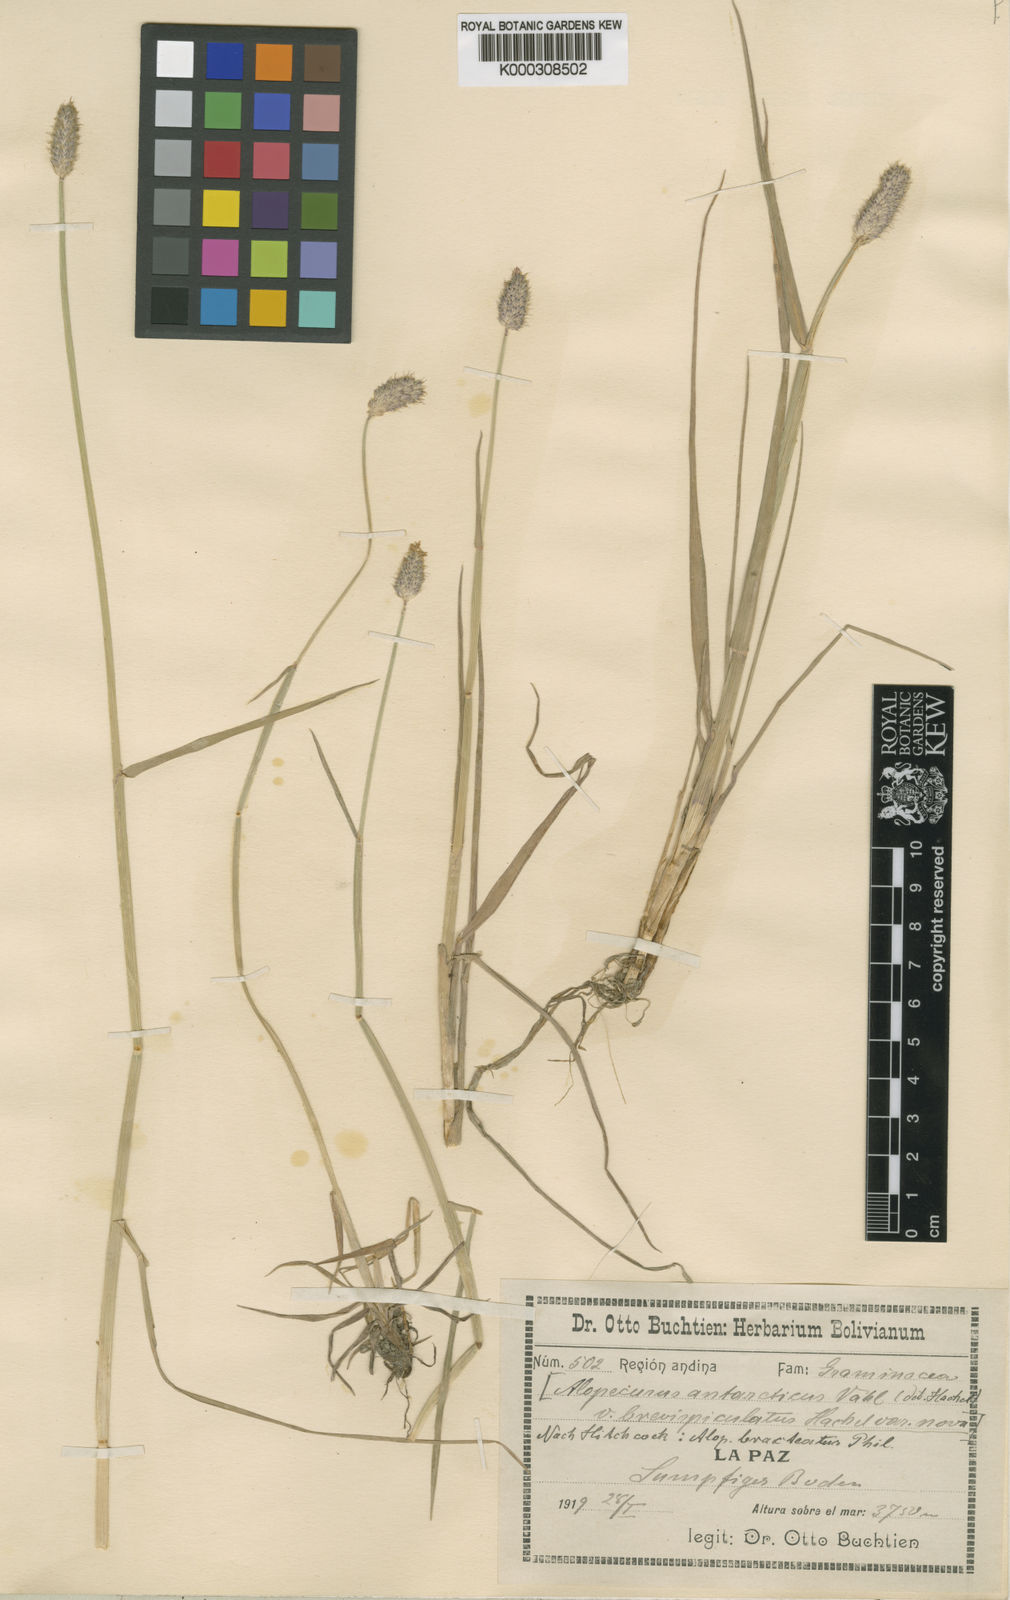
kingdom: Plantae
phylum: Tracheophyta
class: Liliopsida
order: Poales
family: Poaceae
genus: Alopecurus
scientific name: Alopecurus magellanicus
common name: Alpine foxtail
